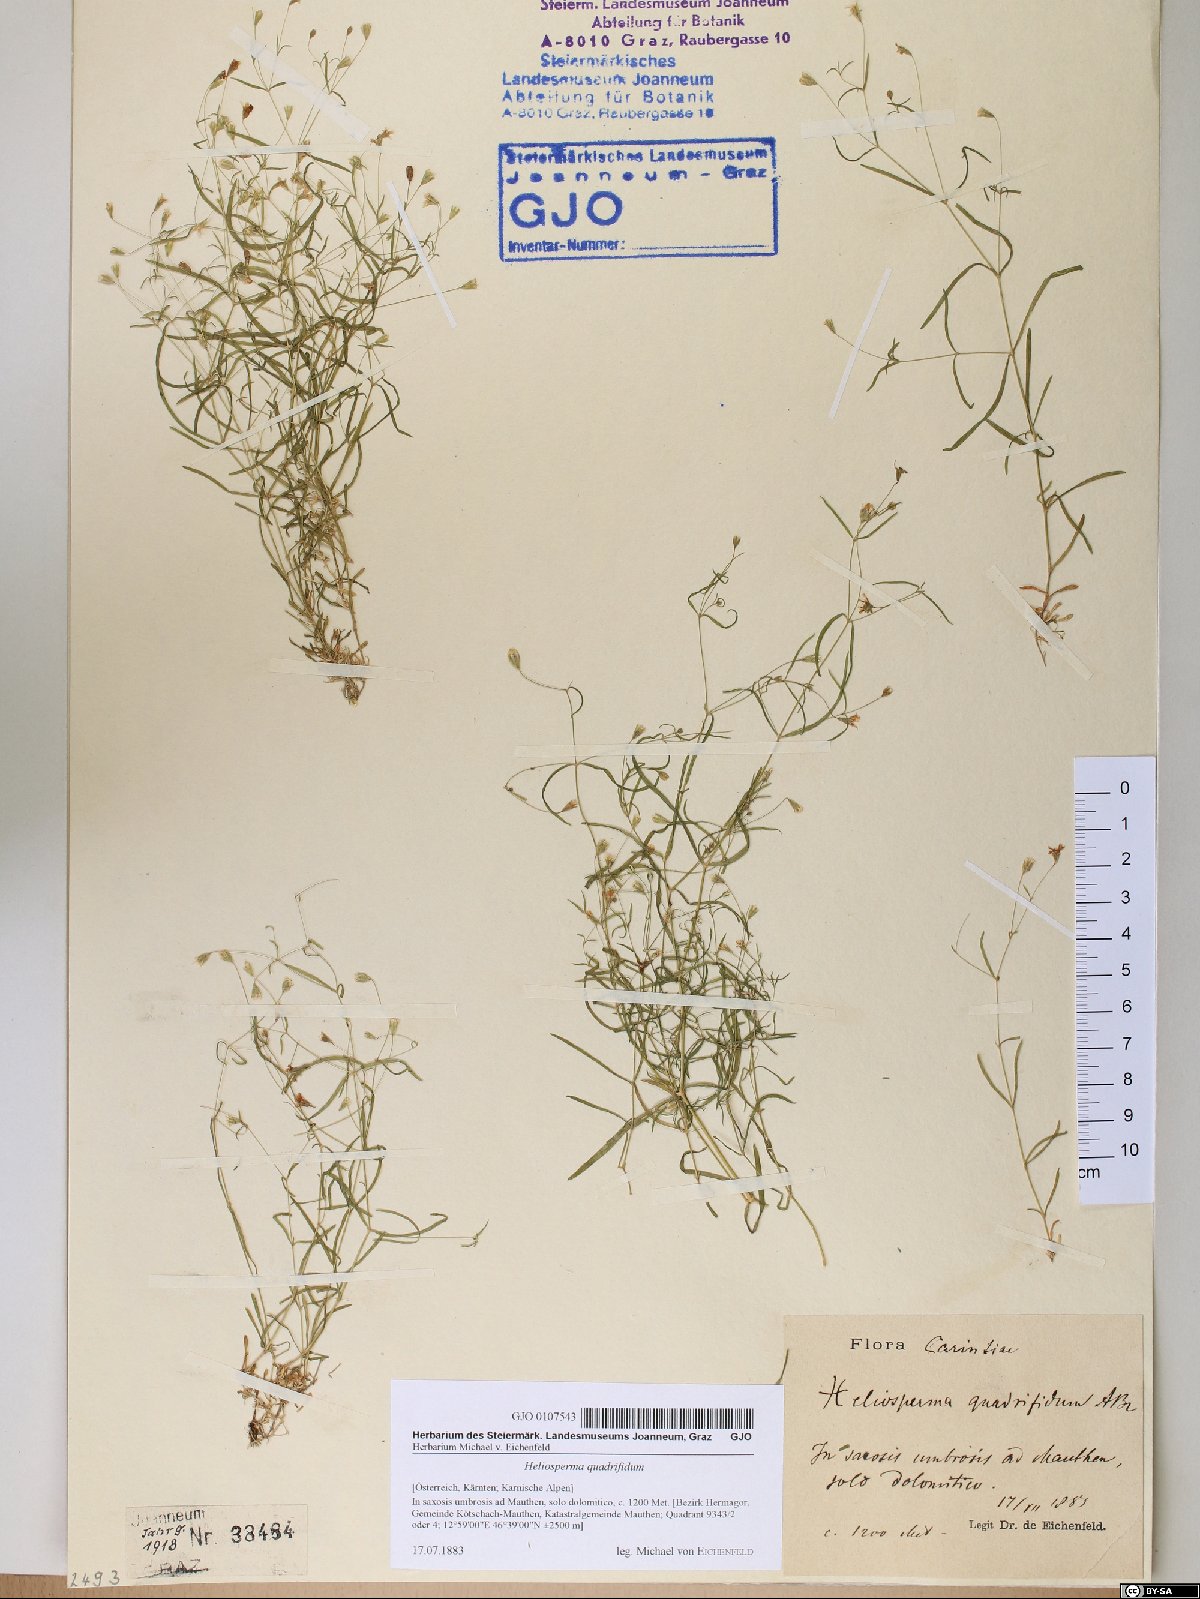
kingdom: Plantae
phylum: Tracheophyta
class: Magnoliopsida
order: Caryophyllales
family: Caryophyllaceae
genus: Heliosperma
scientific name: Heliosperma alpestre
